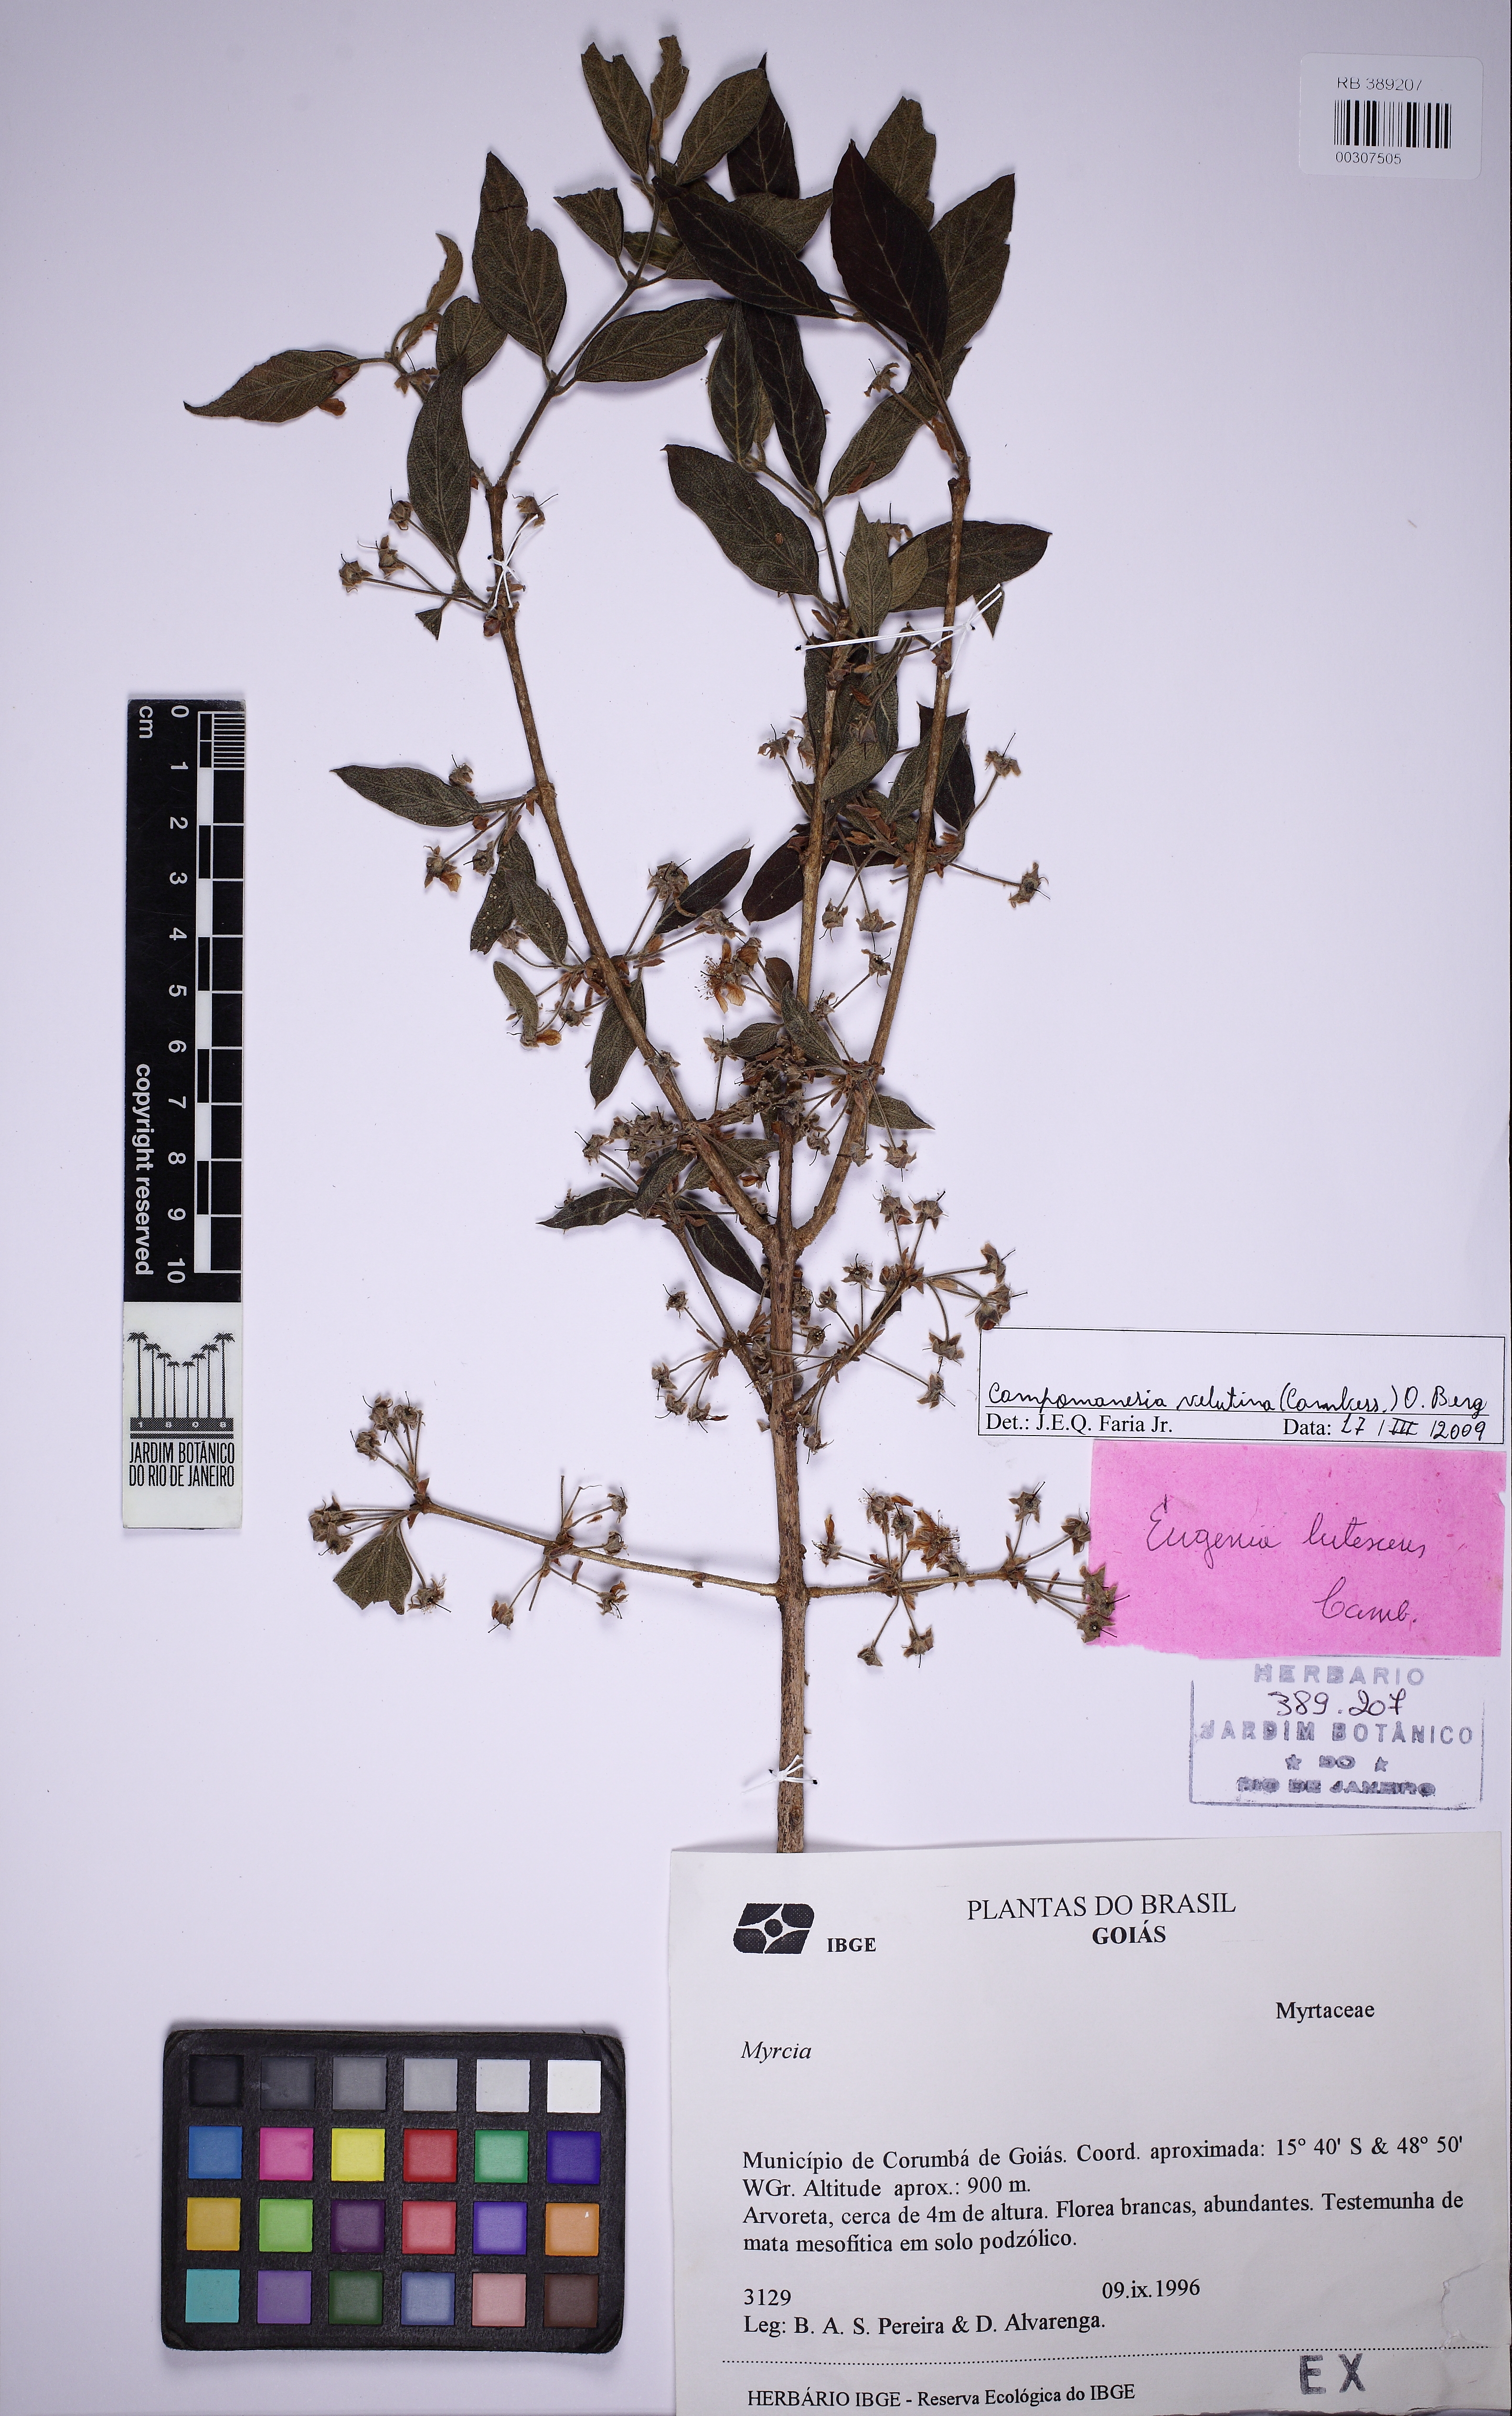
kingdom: Plantae
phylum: Tracheophyta
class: Magnoliopsida
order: Myrtales
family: Myrtaceae
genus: Campomanesia
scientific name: Campomanesia velutina
